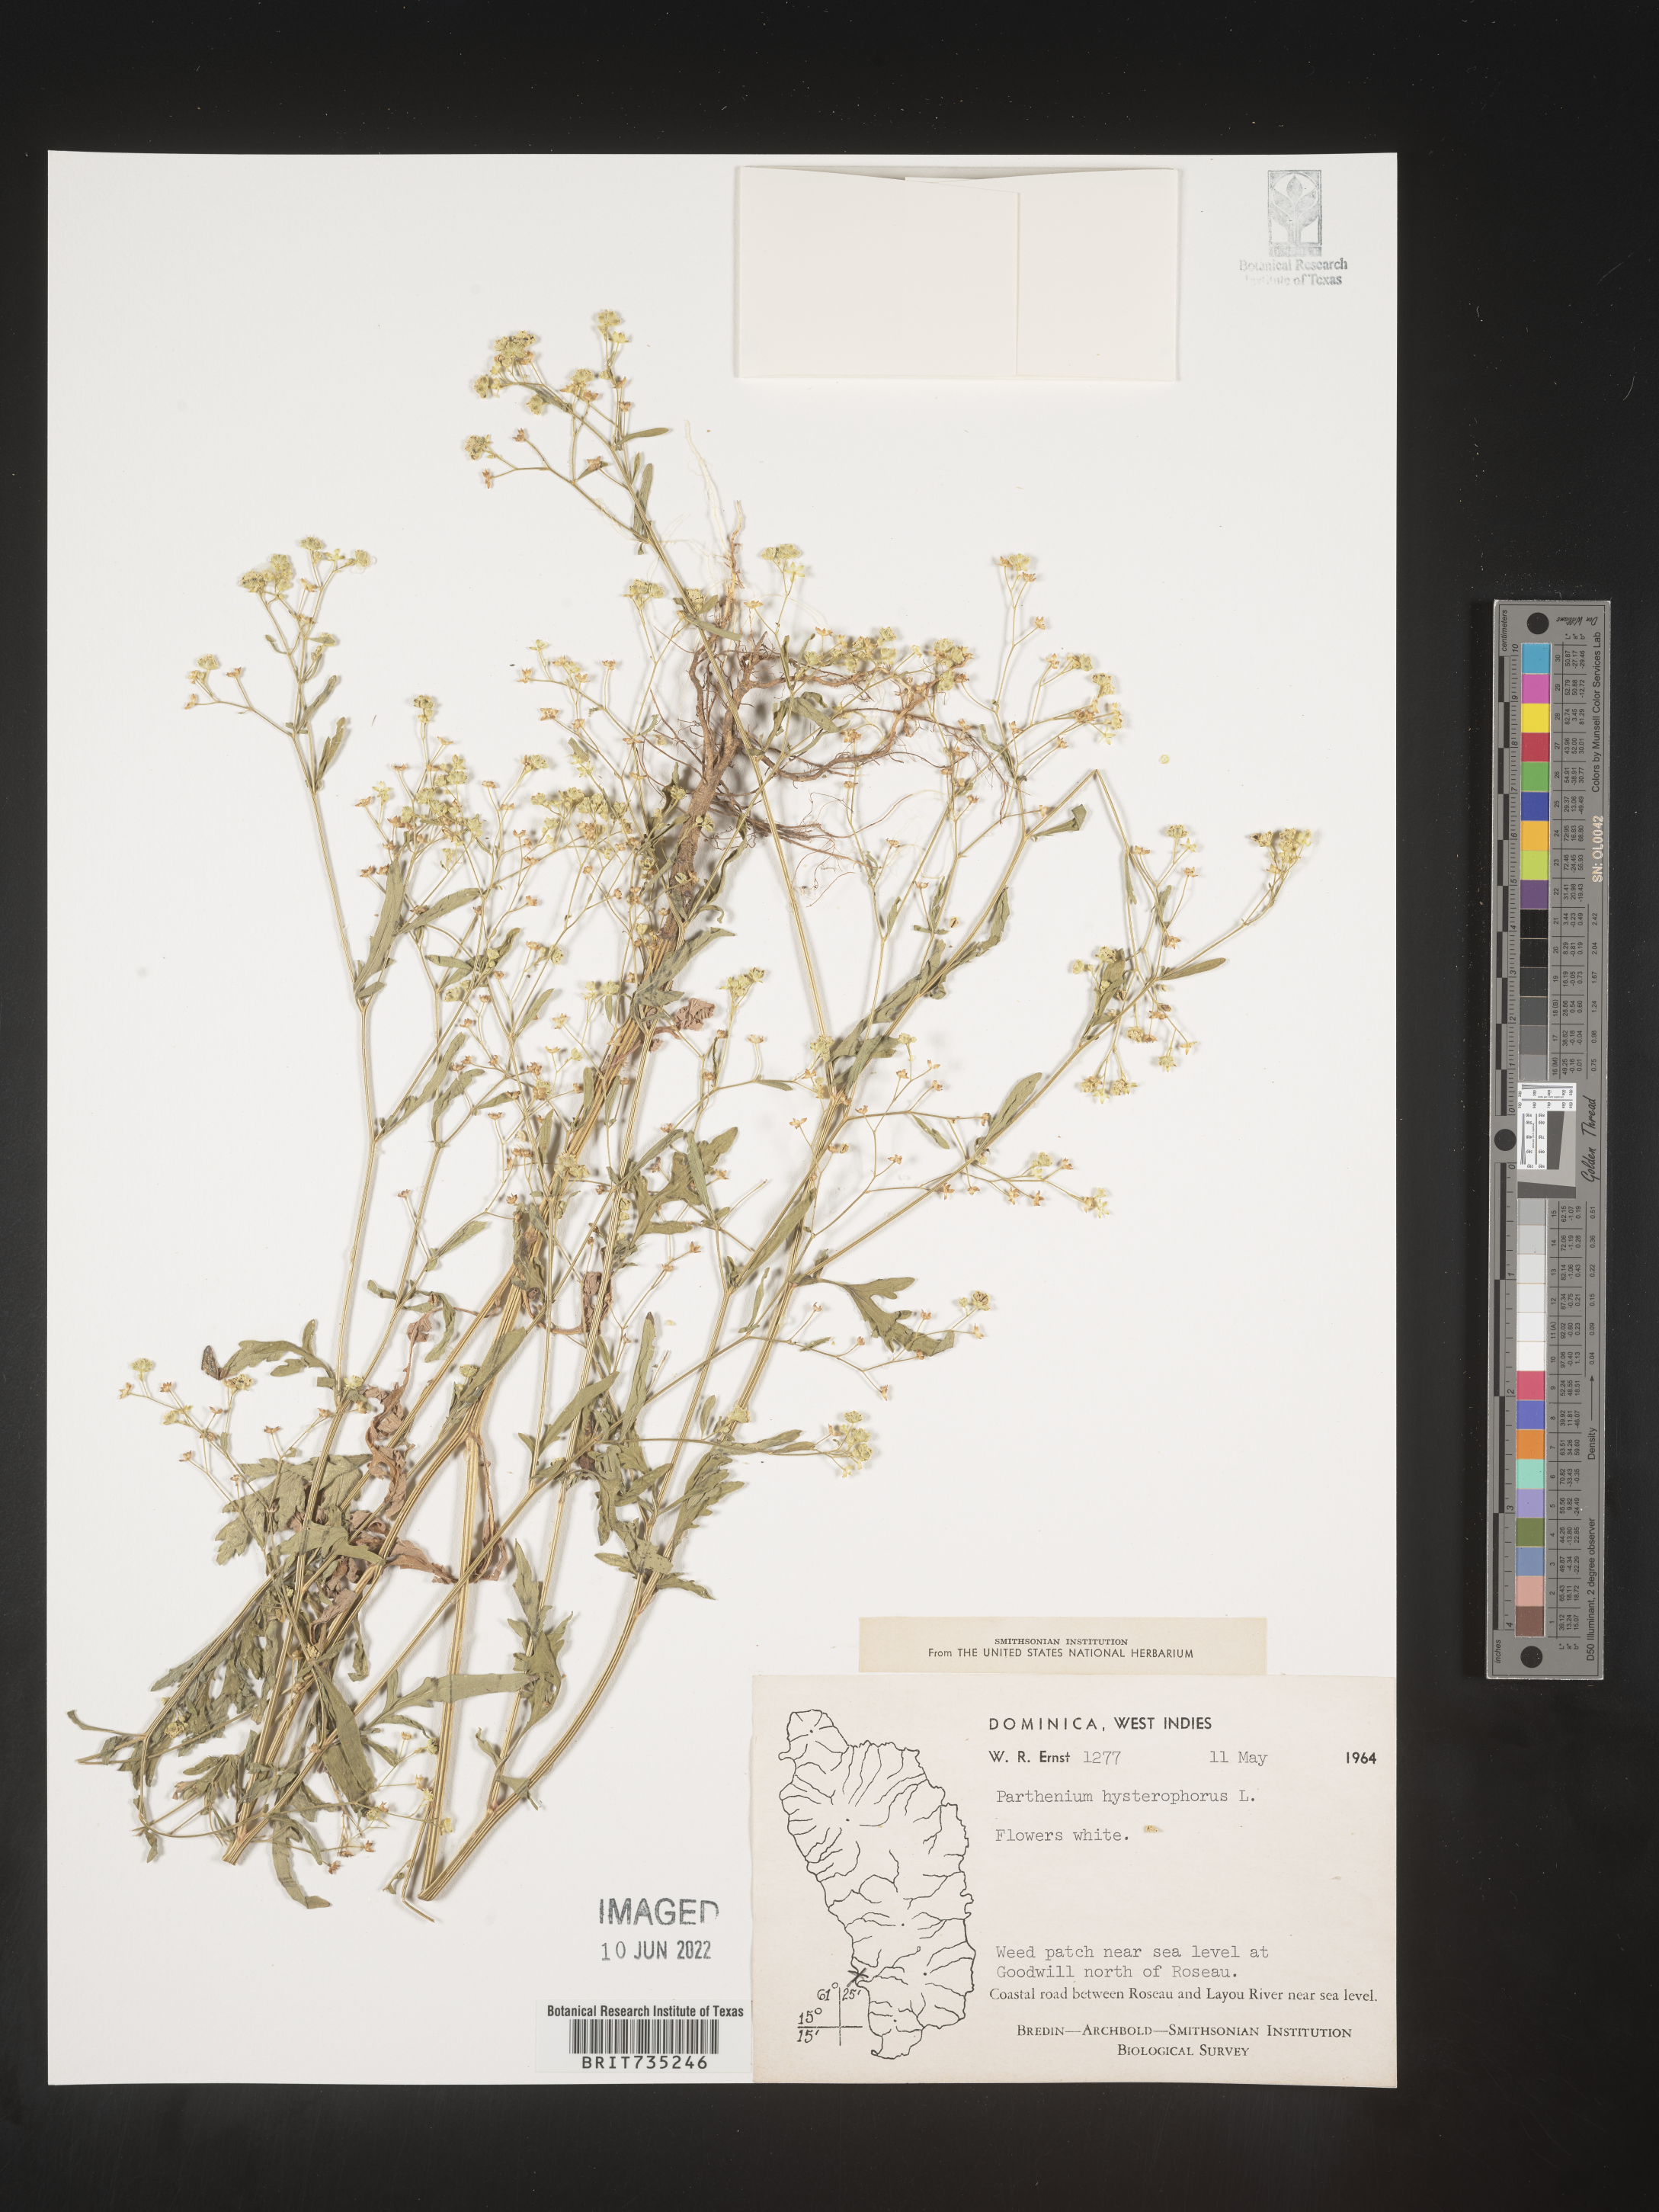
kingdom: Plantae
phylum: Tracheophyta
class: Magnoliopsida
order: Asterales
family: Asteraceae
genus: Parthenium
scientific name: Parthenium
